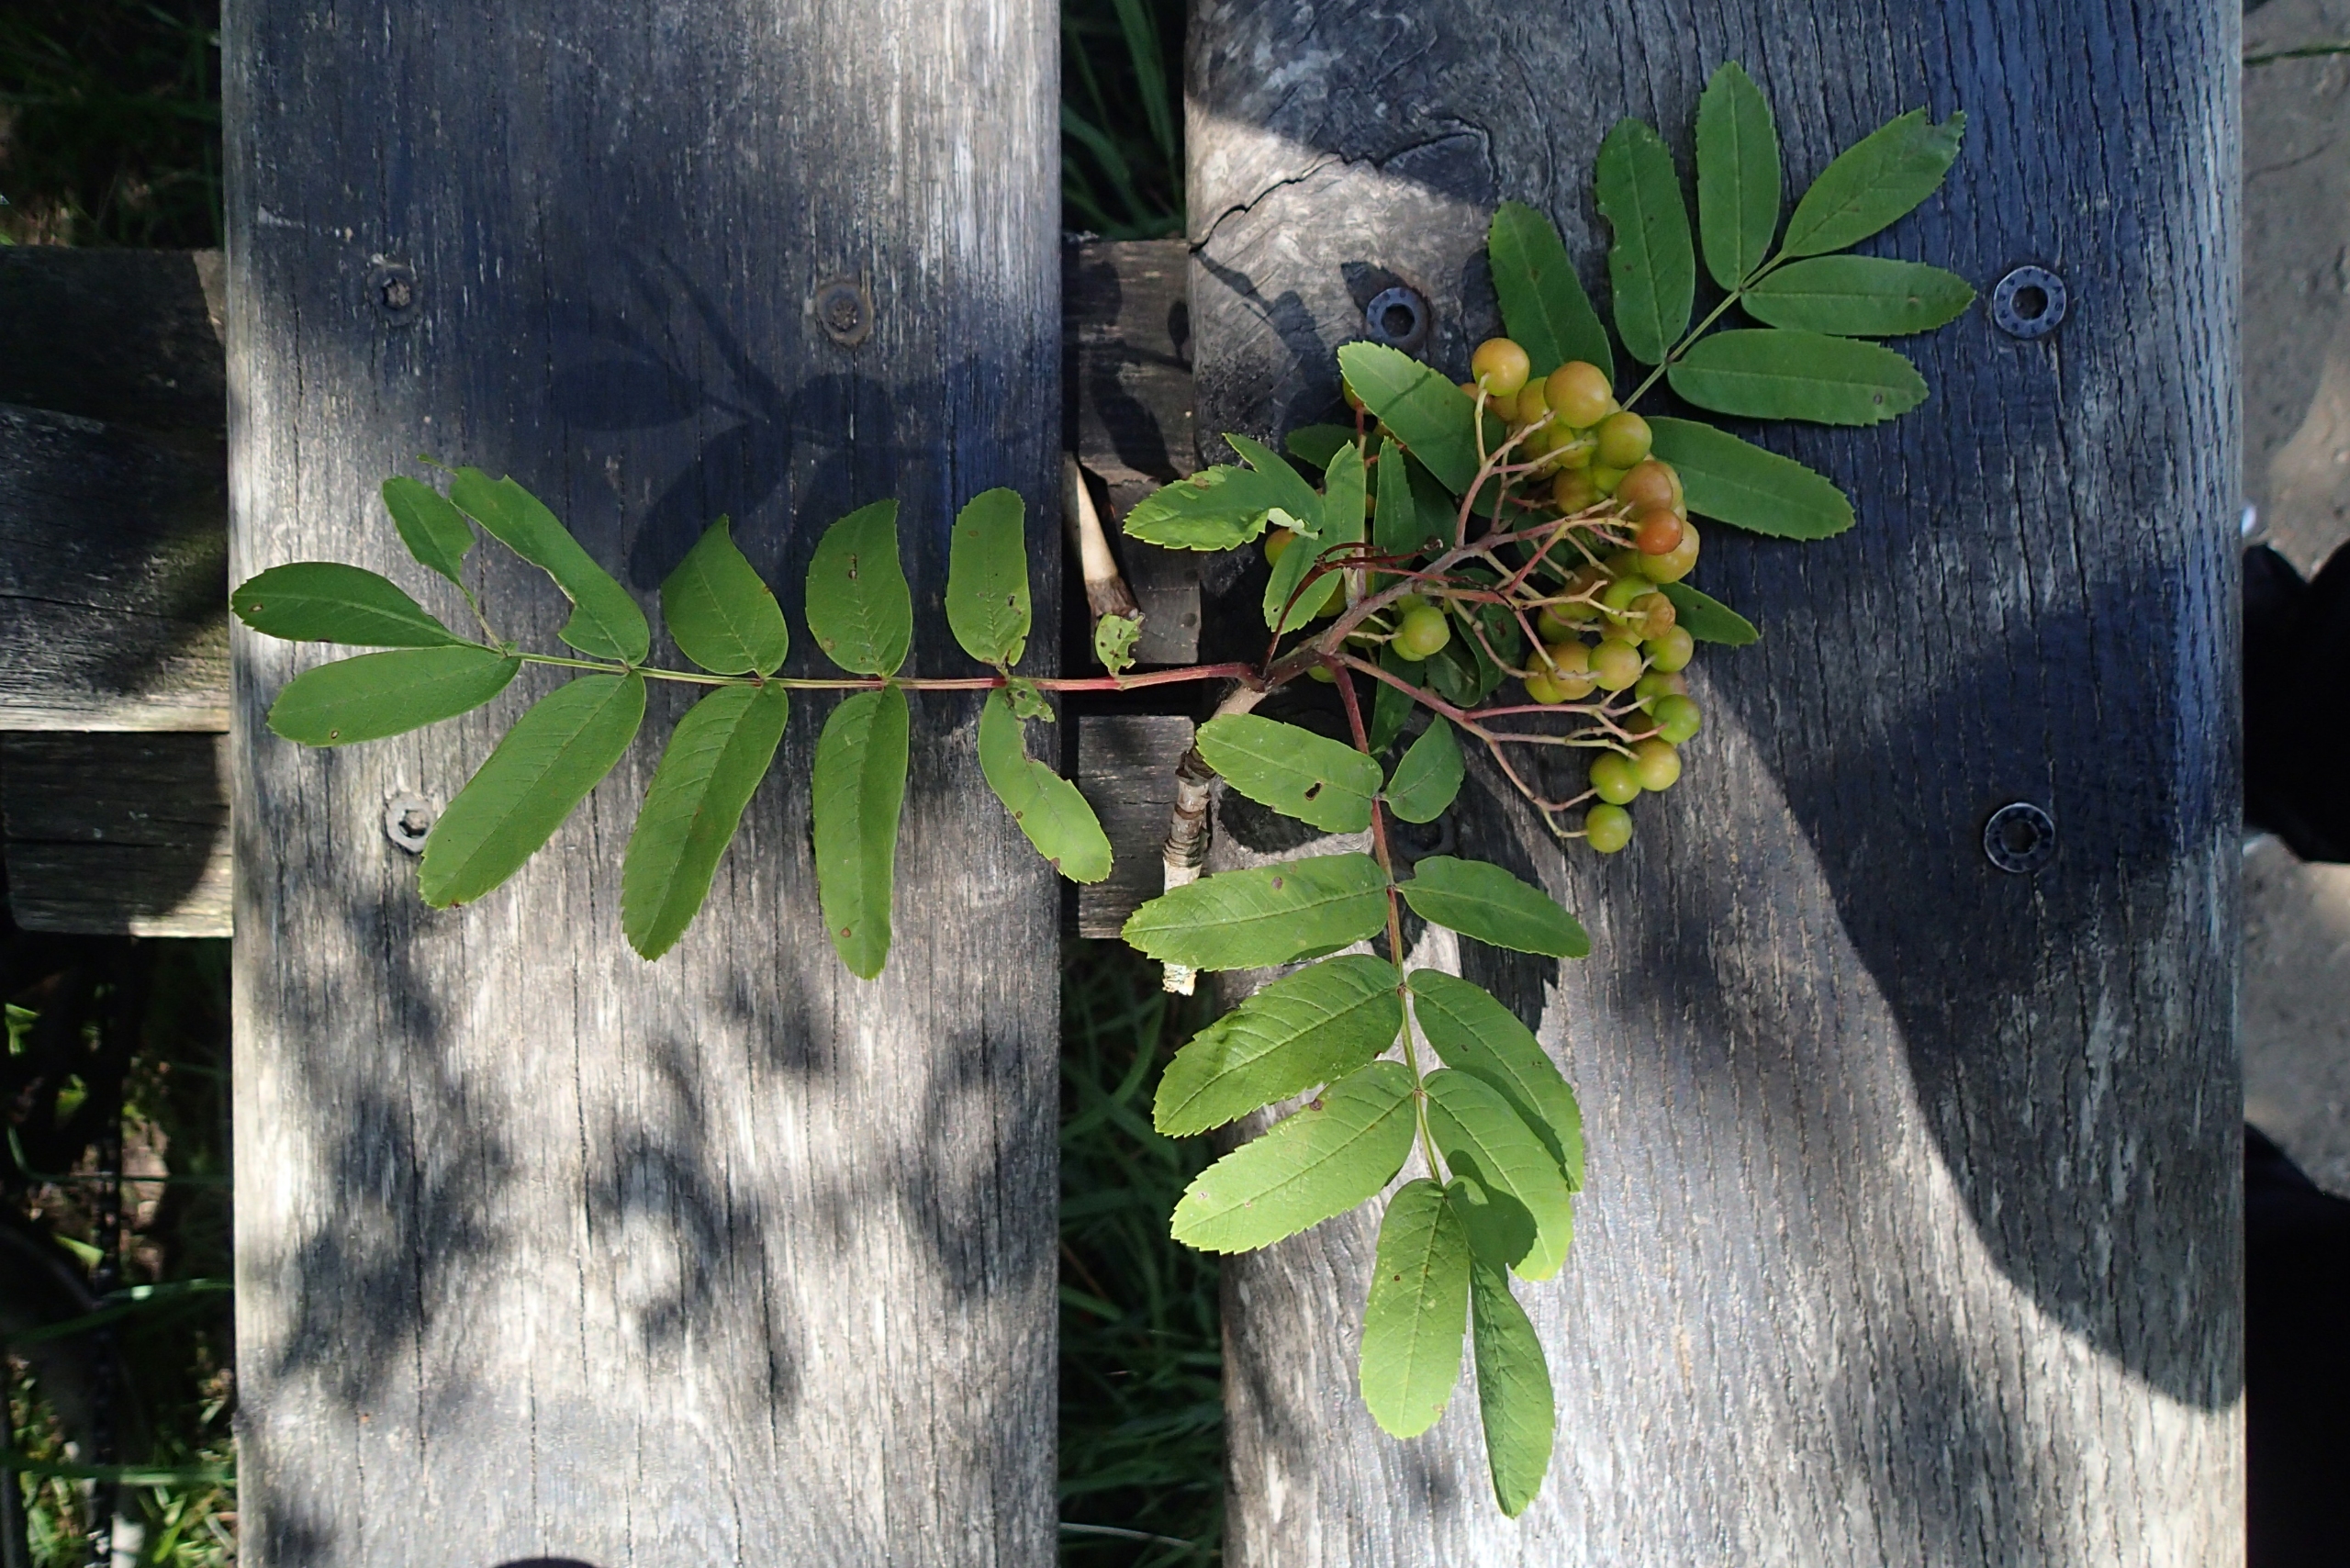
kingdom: Plantae
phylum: Tracheophyta
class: Magnoliopsida
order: Rosales
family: Rosaceae
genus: Sorbus
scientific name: Sorbus aucuparia
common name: Almindelig røn
